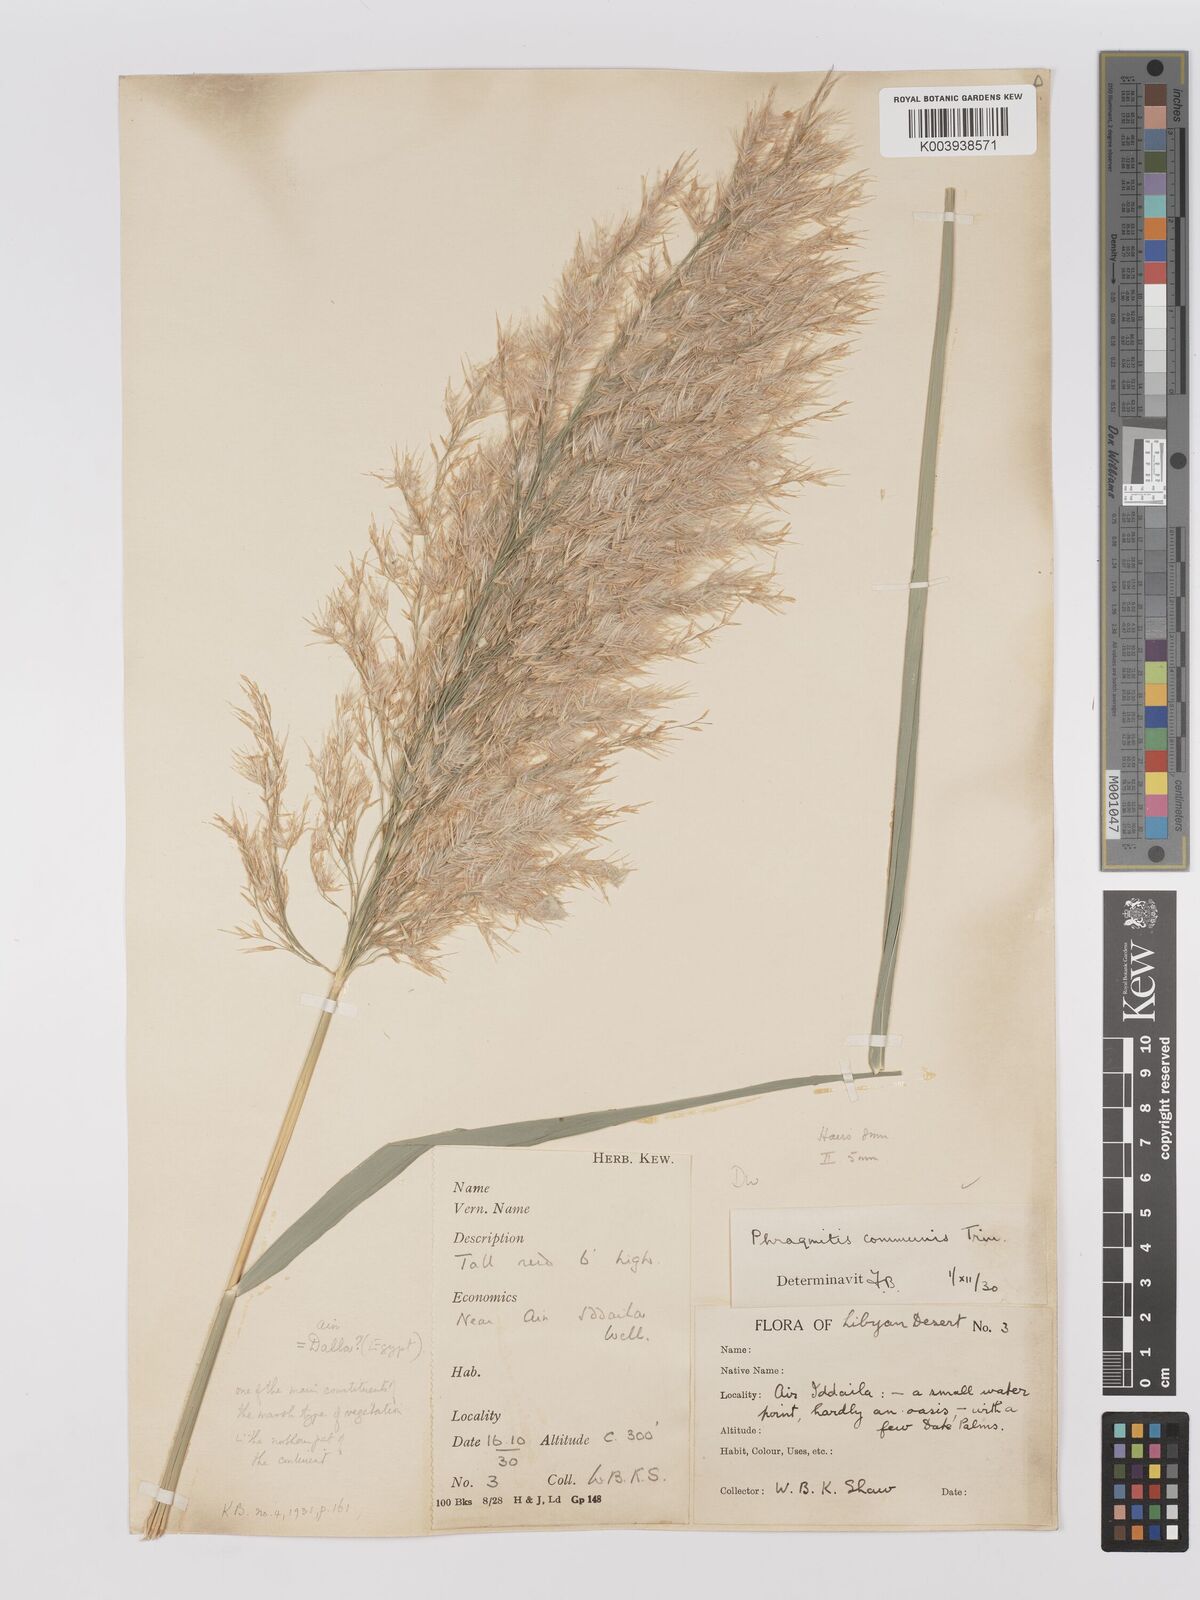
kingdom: Plantae
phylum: Tracheophyta
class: Liliopsida
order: Poales
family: Poaceae
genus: Phragmites
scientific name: Phragmites australis
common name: Common reed
